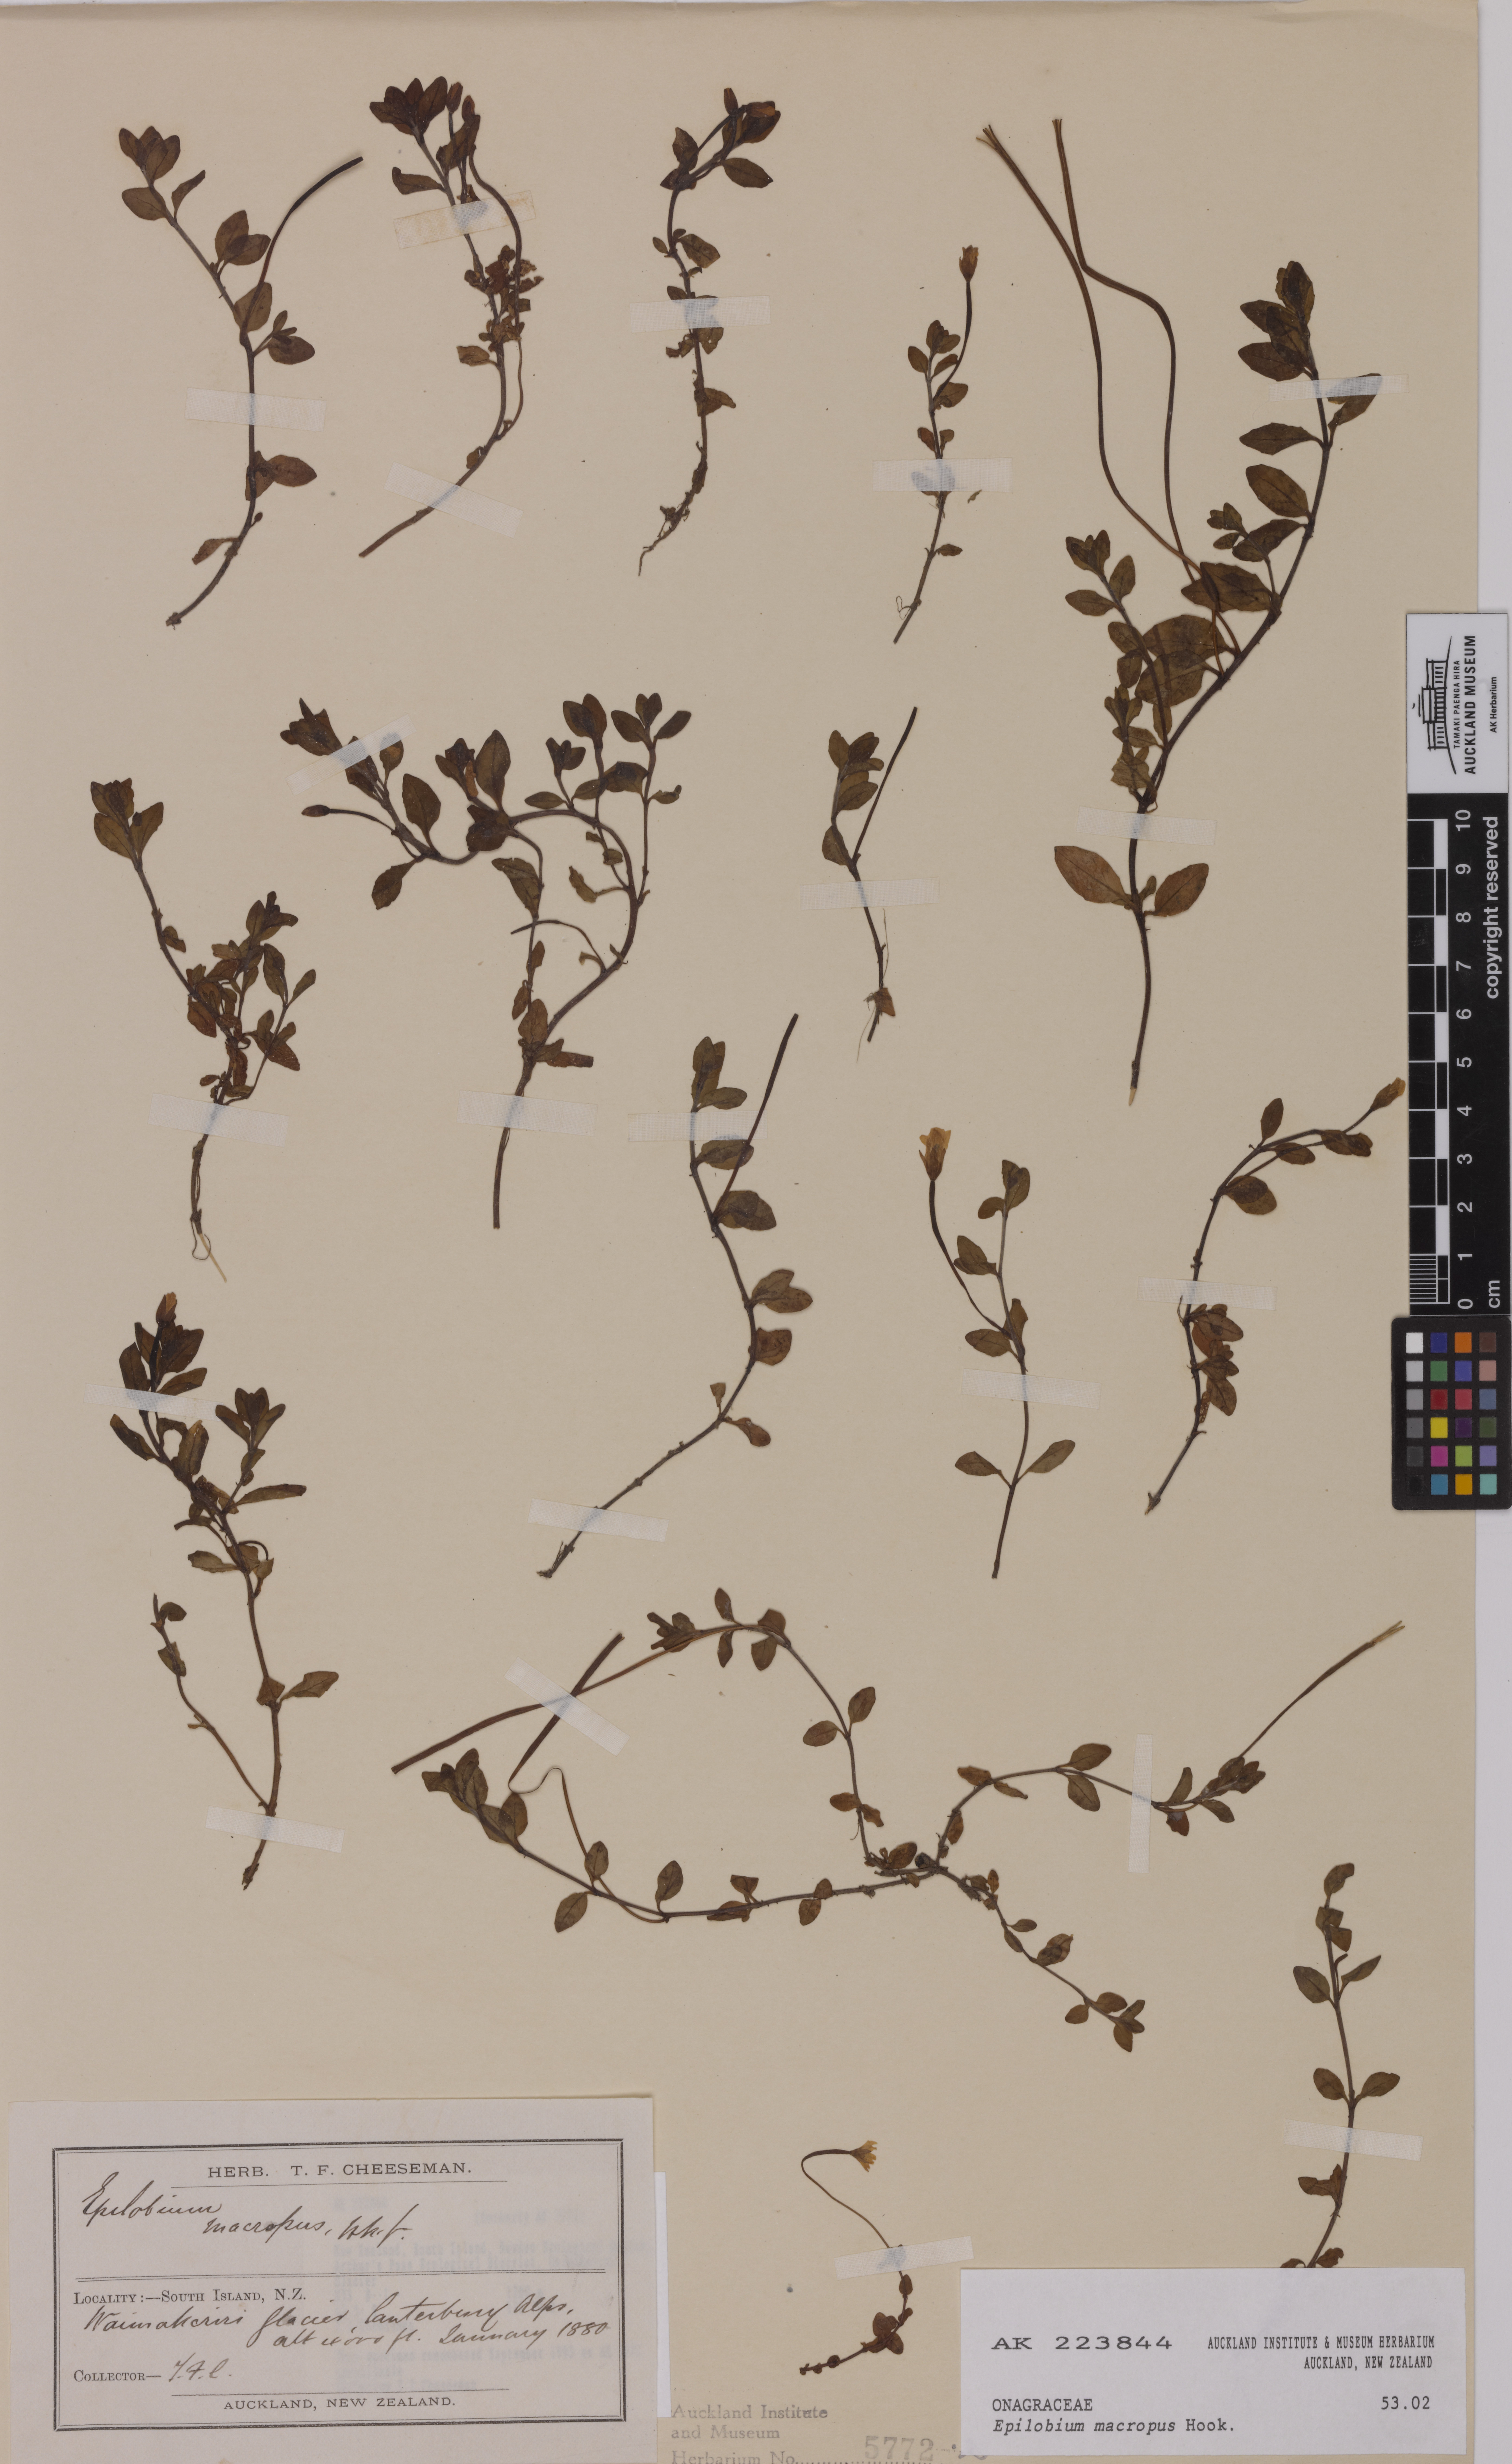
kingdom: Plantae
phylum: Tracheophyta
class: Magnoliopsida
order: Myrtales
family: Onagraceae
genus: Epilobium
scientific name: Epilobium macropus
